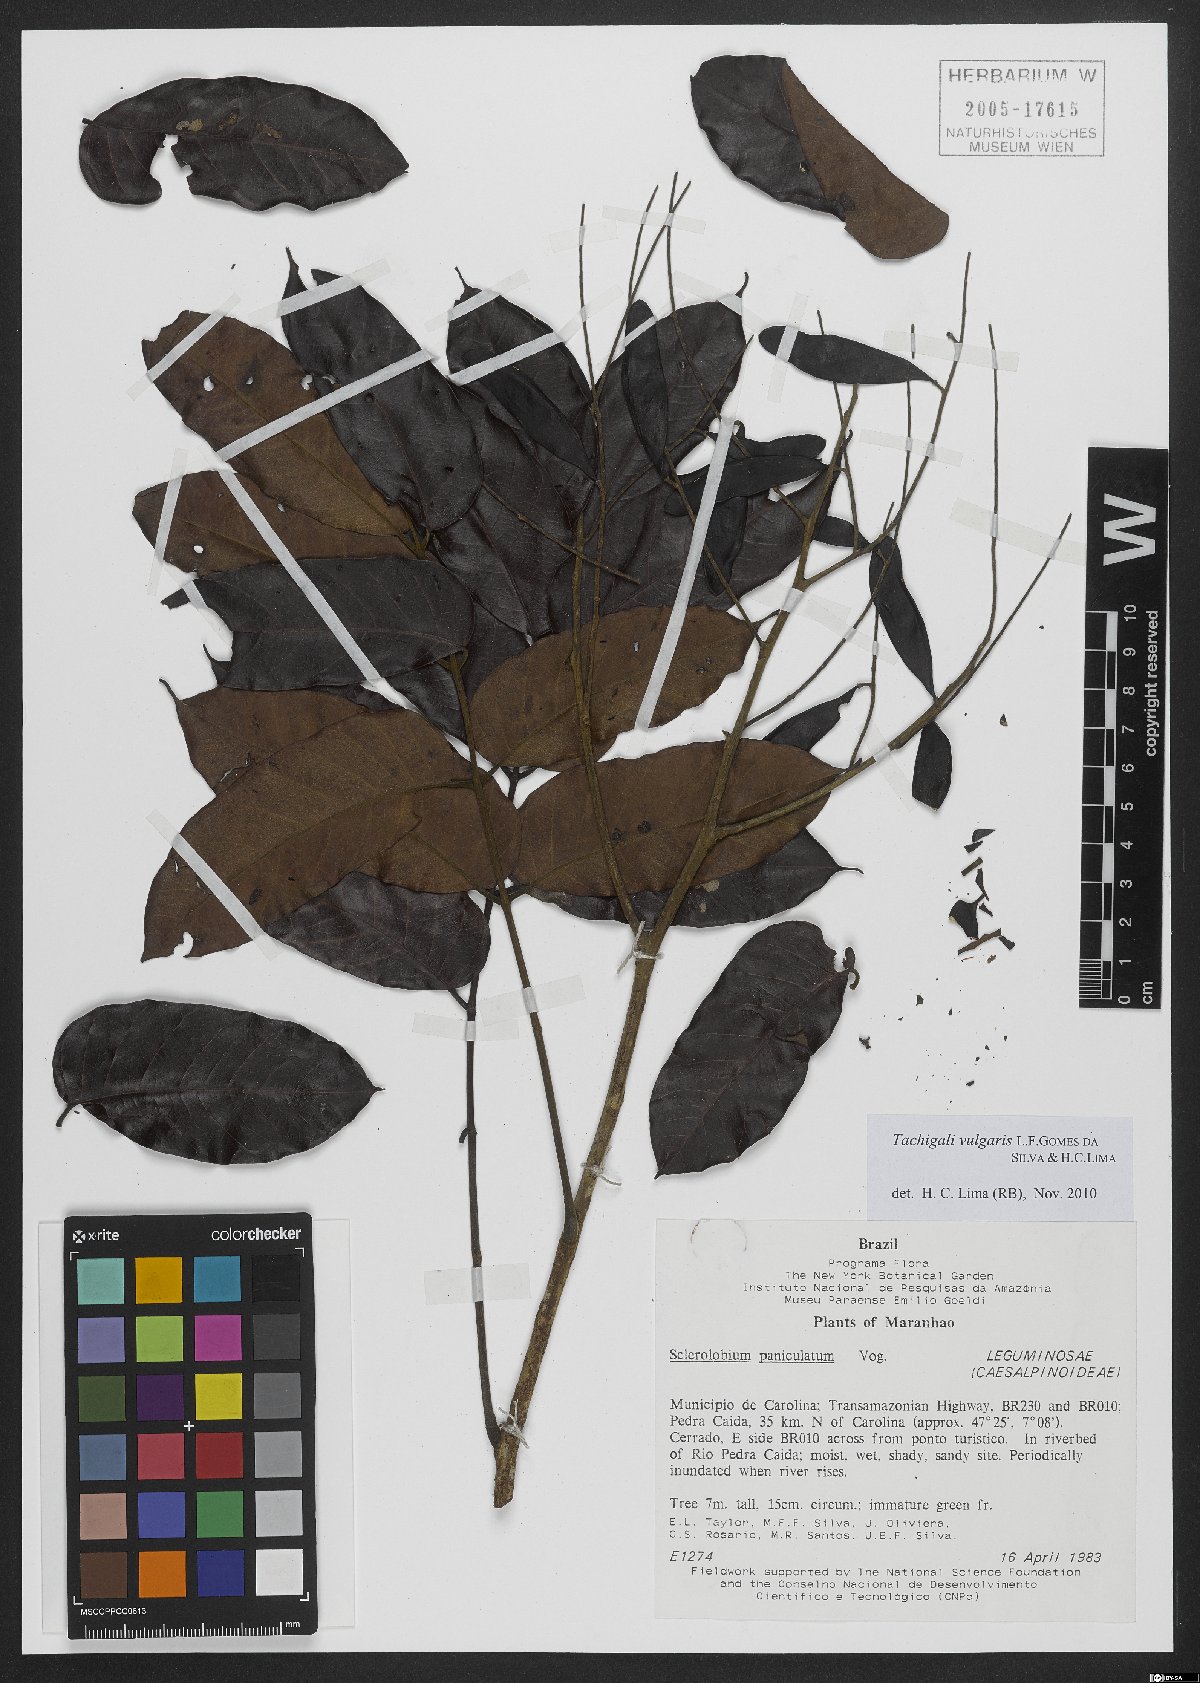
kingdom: Plantae
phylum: Tracheophyta
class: Magnoliopsida
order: Fabales
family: Fabaceae
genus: Tachigali
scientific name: Tachigali vulgaris
